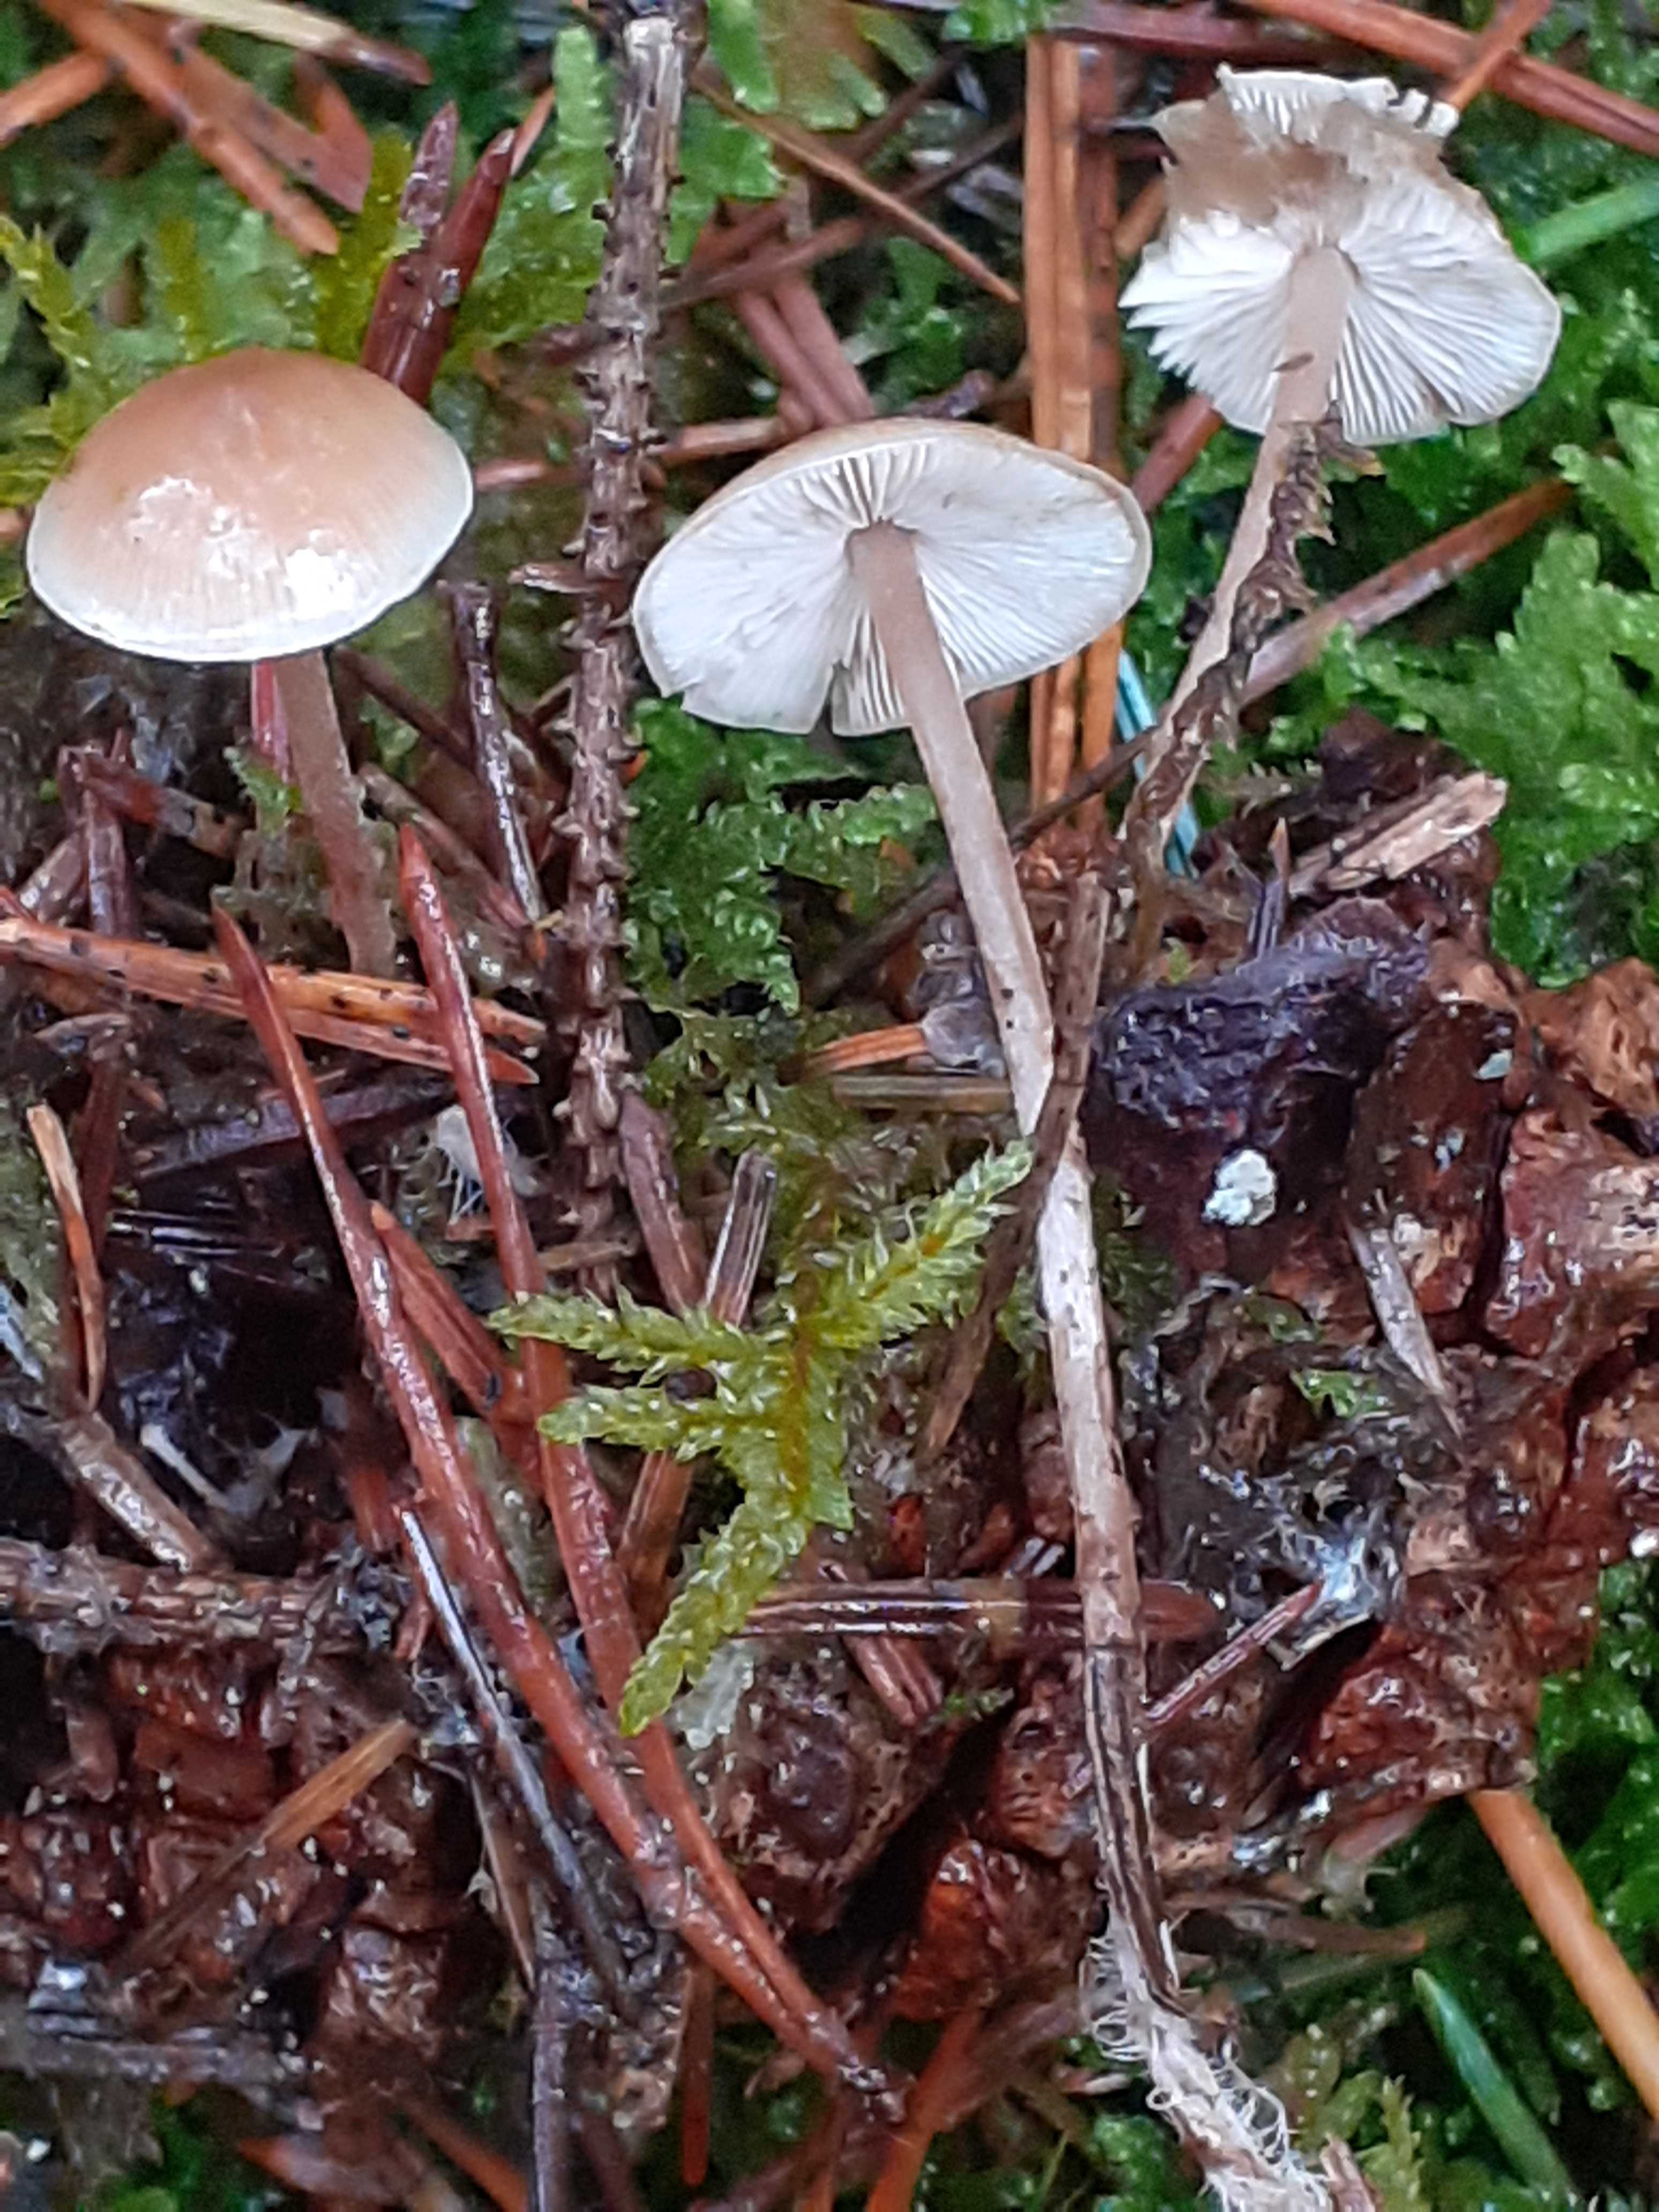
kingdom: Fungi
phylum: Basidiomycota
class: Agaricomycetes
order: Agaricales
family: Marasmiaceae
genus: Baeospora
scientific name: Baeospora myosura
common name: koglebruskhat
